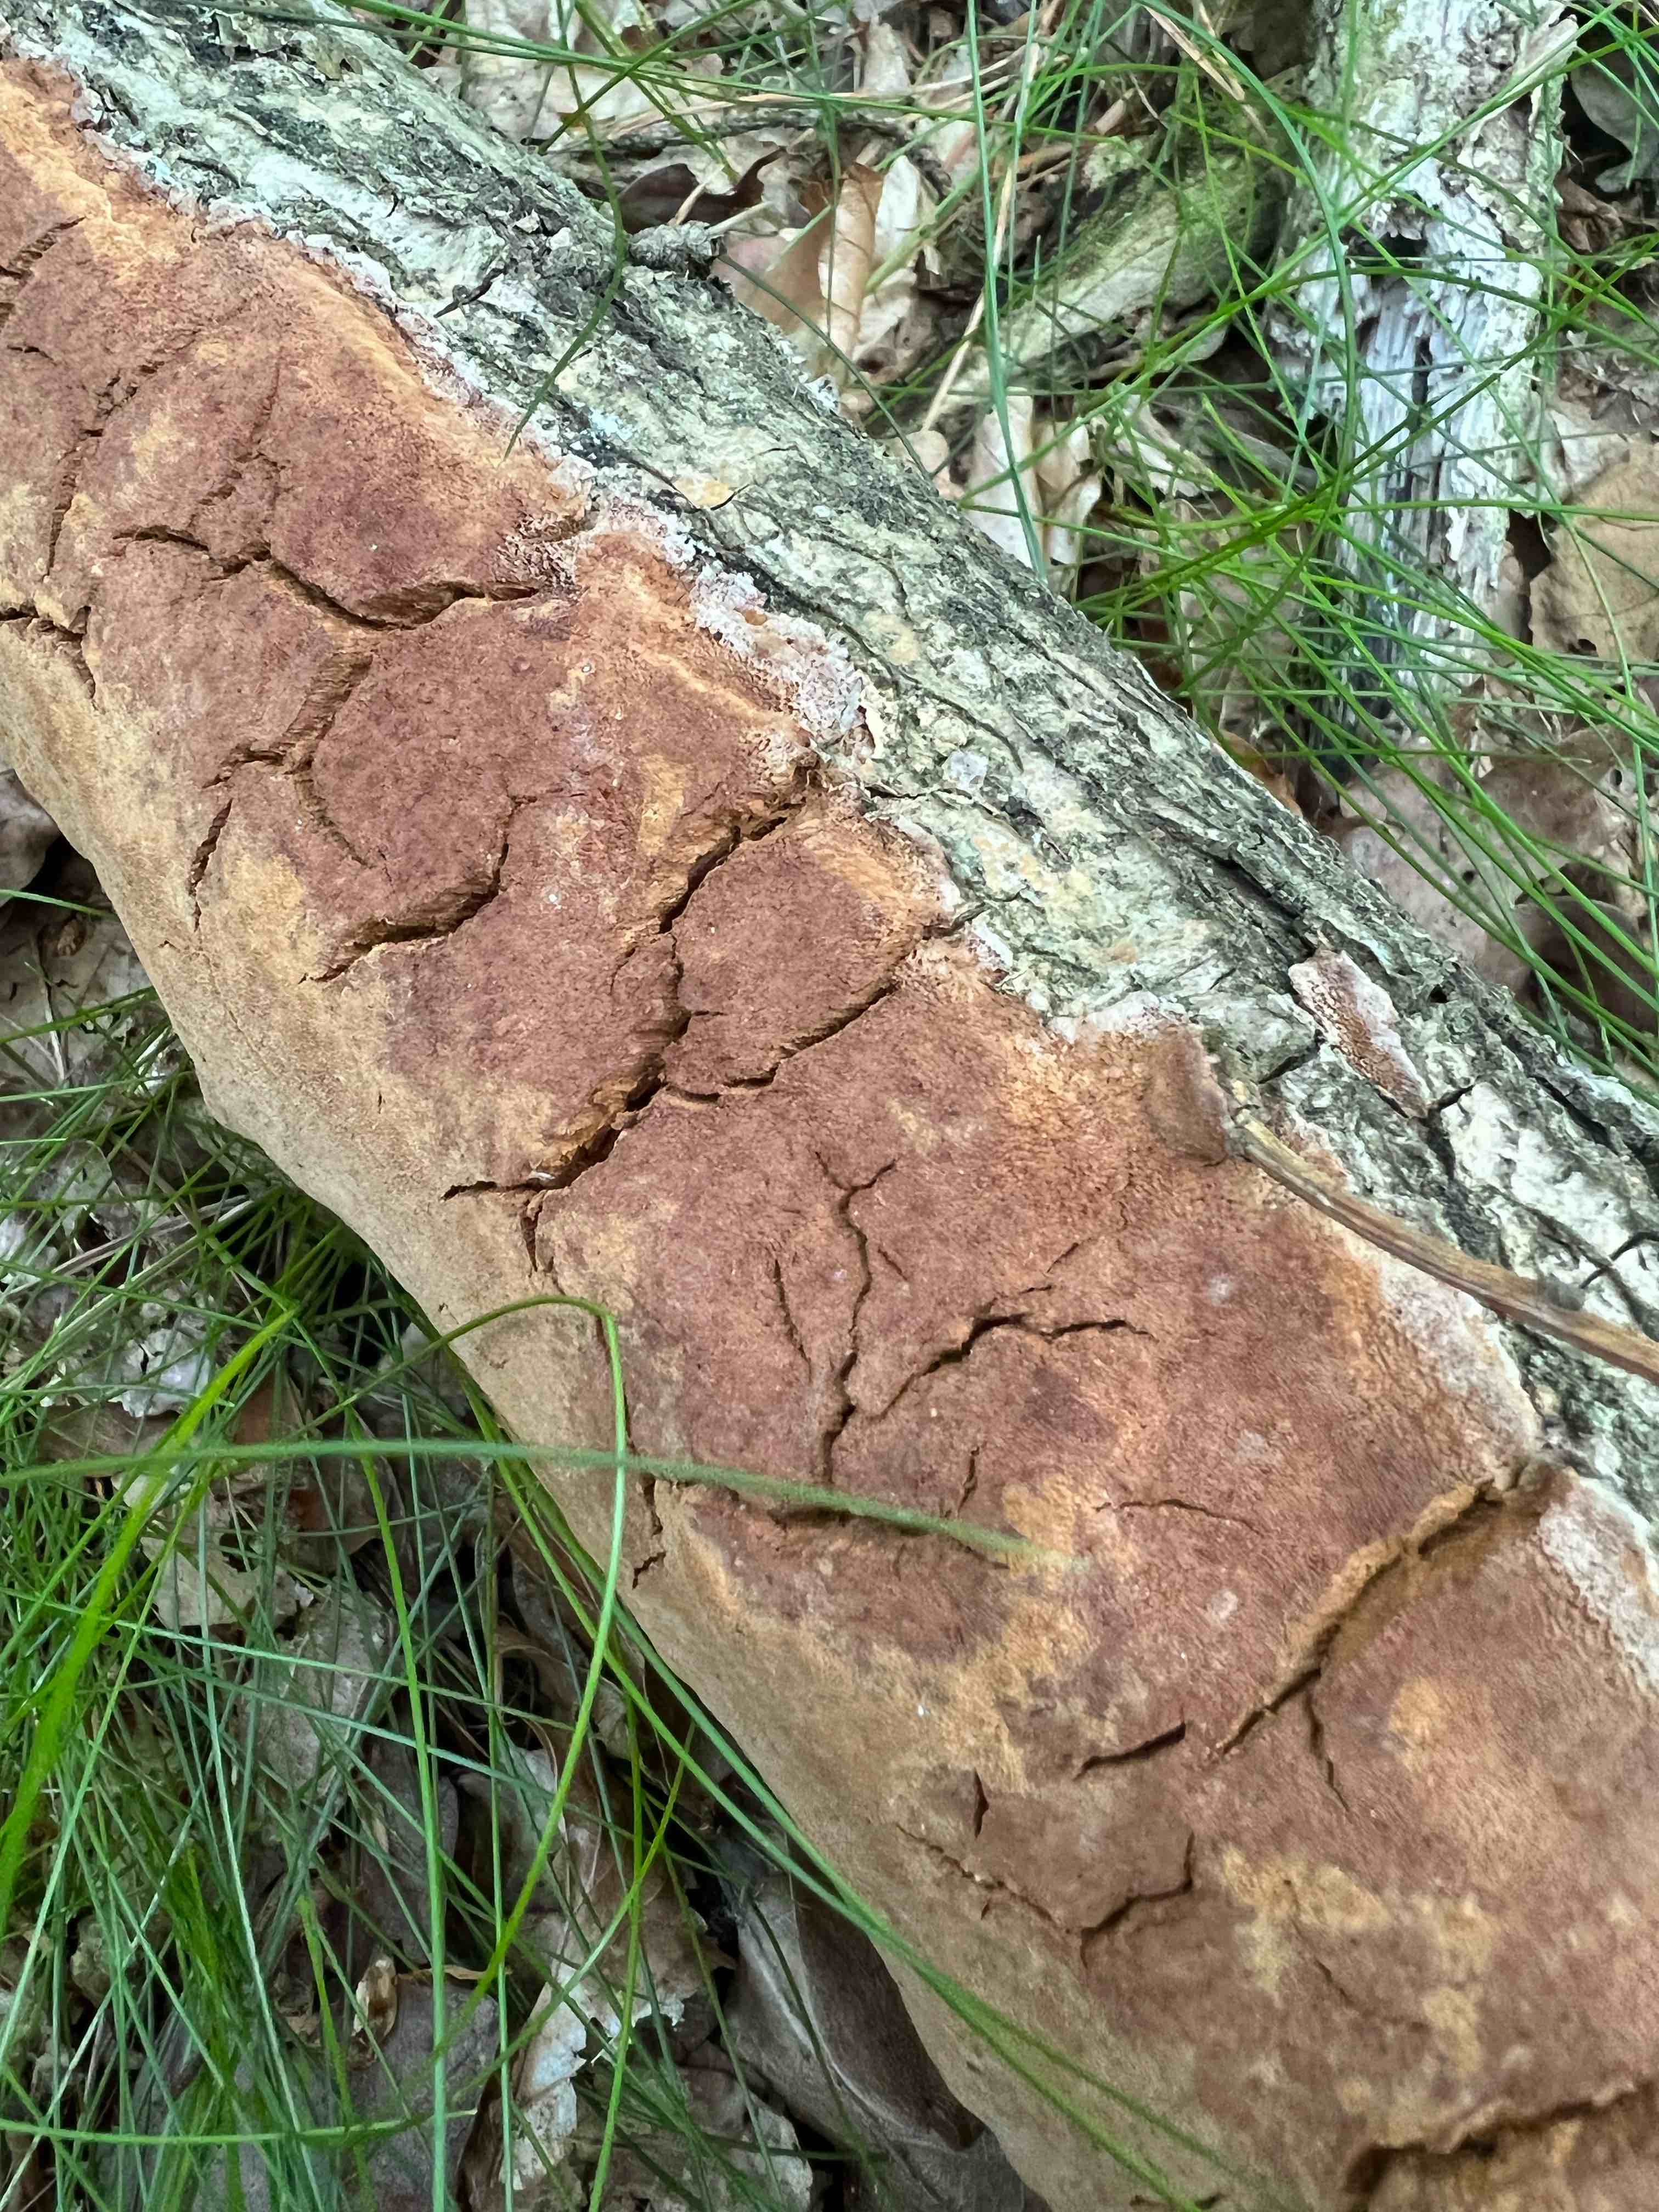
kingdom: Fungi
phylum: Basidiomycota
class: Agaricomycetes
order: Hymenochaetales
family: Hymenochaetaceae
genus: Fuscoporia
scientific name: Fuscoporia ferrea
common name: skorpe-ildporesvamp
